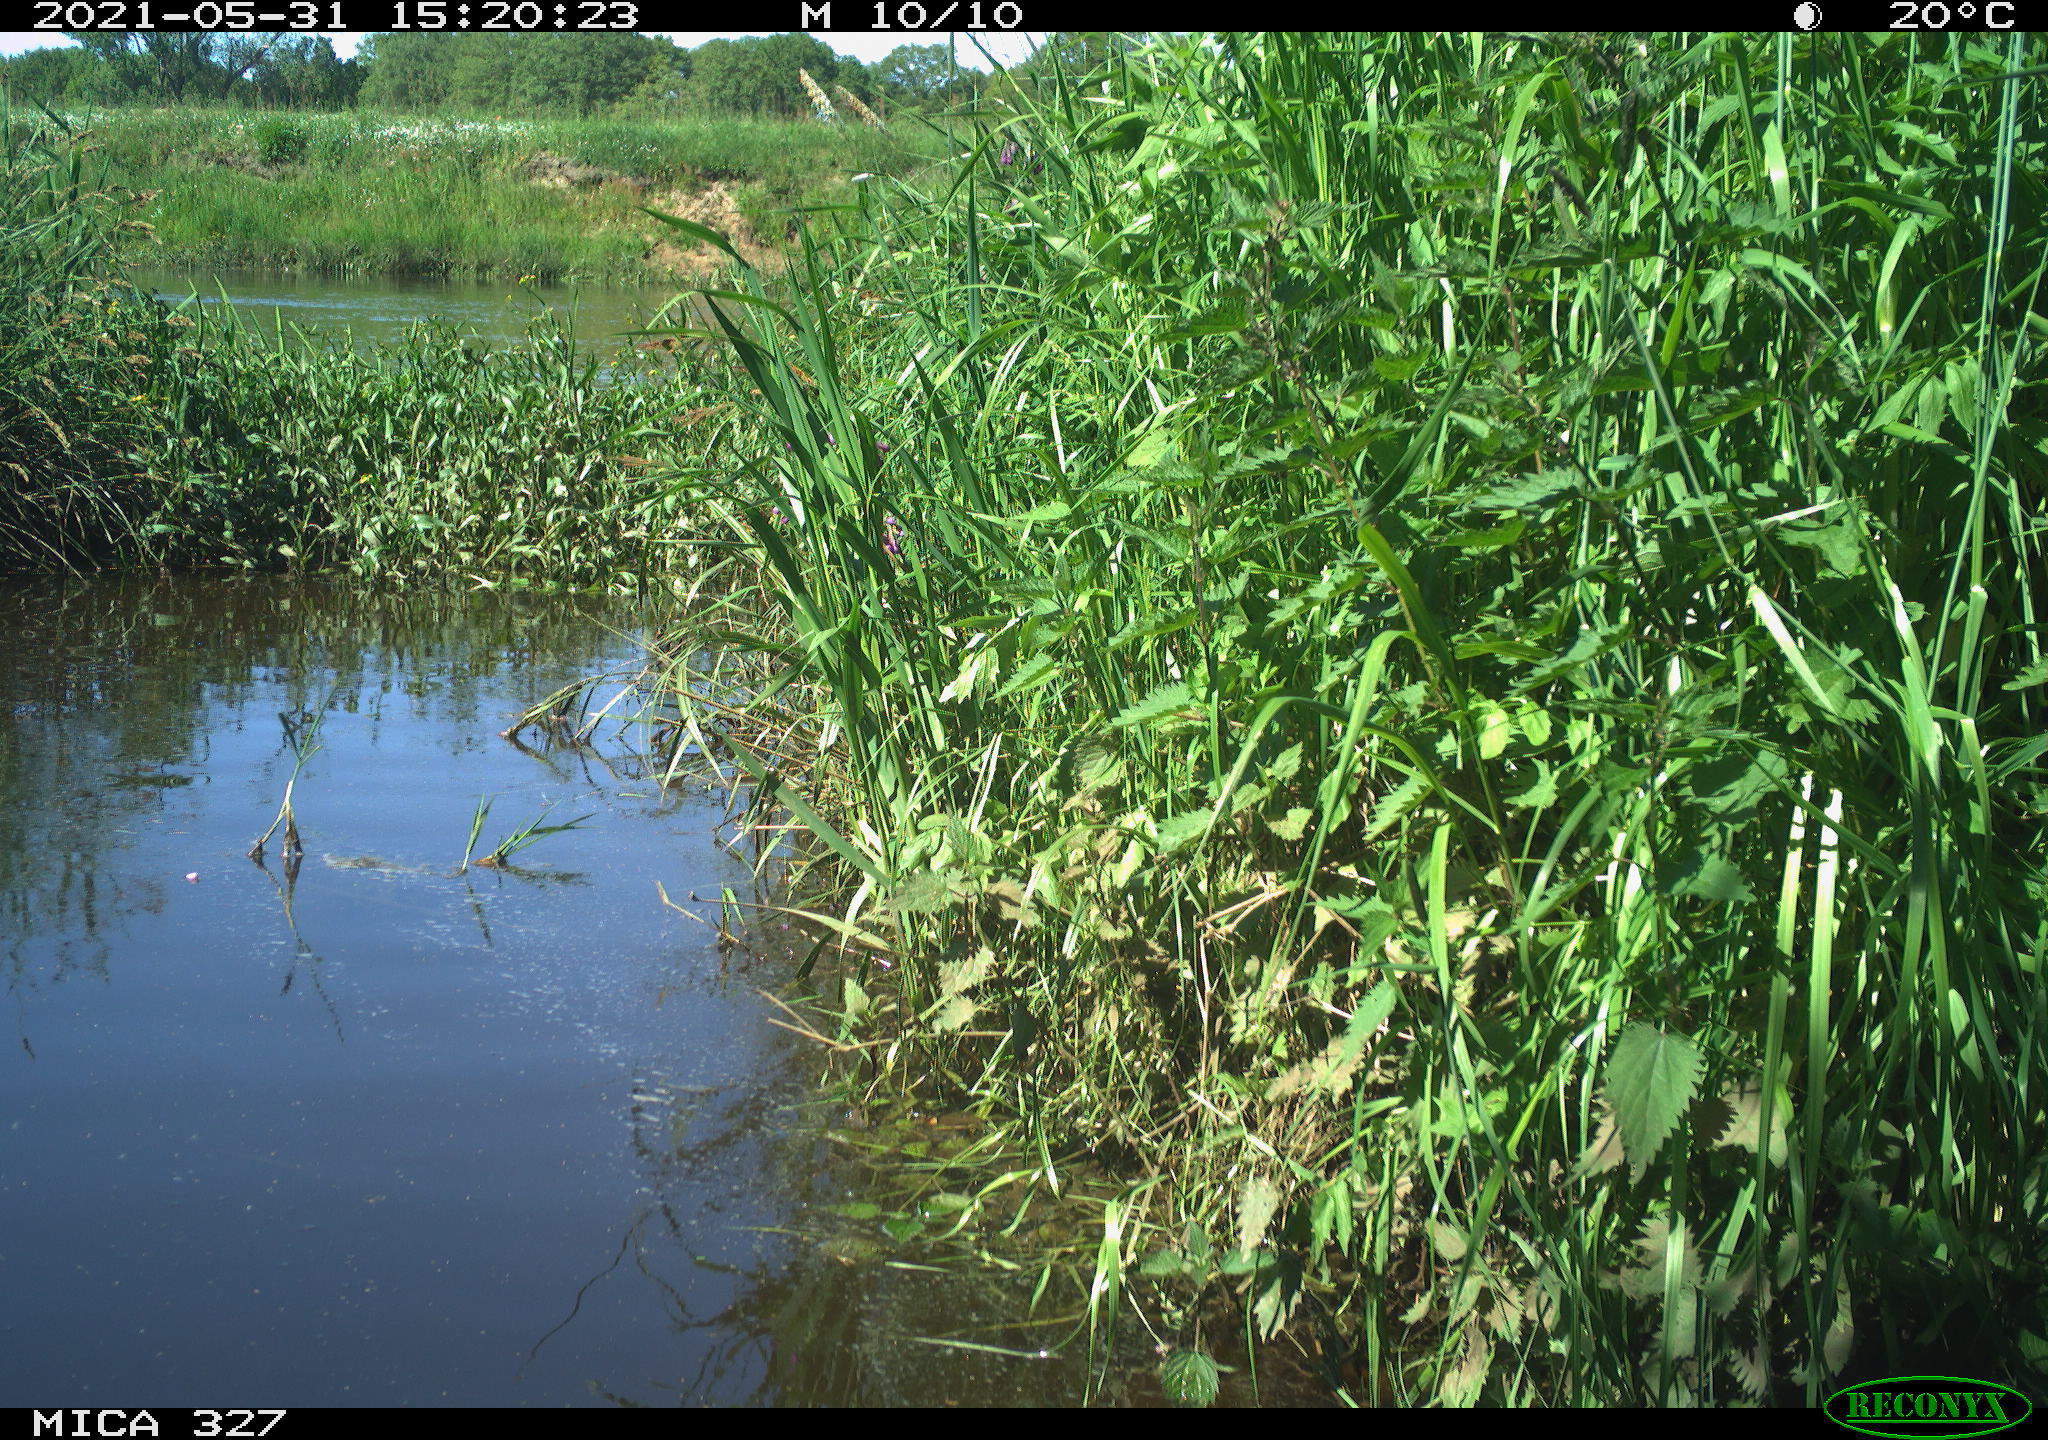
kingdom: Animalia
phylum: Chordata
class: Aves
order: Gruiformes
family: Rallidae
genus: Fulica
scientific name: Fulica atra
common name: Eurasian coot
